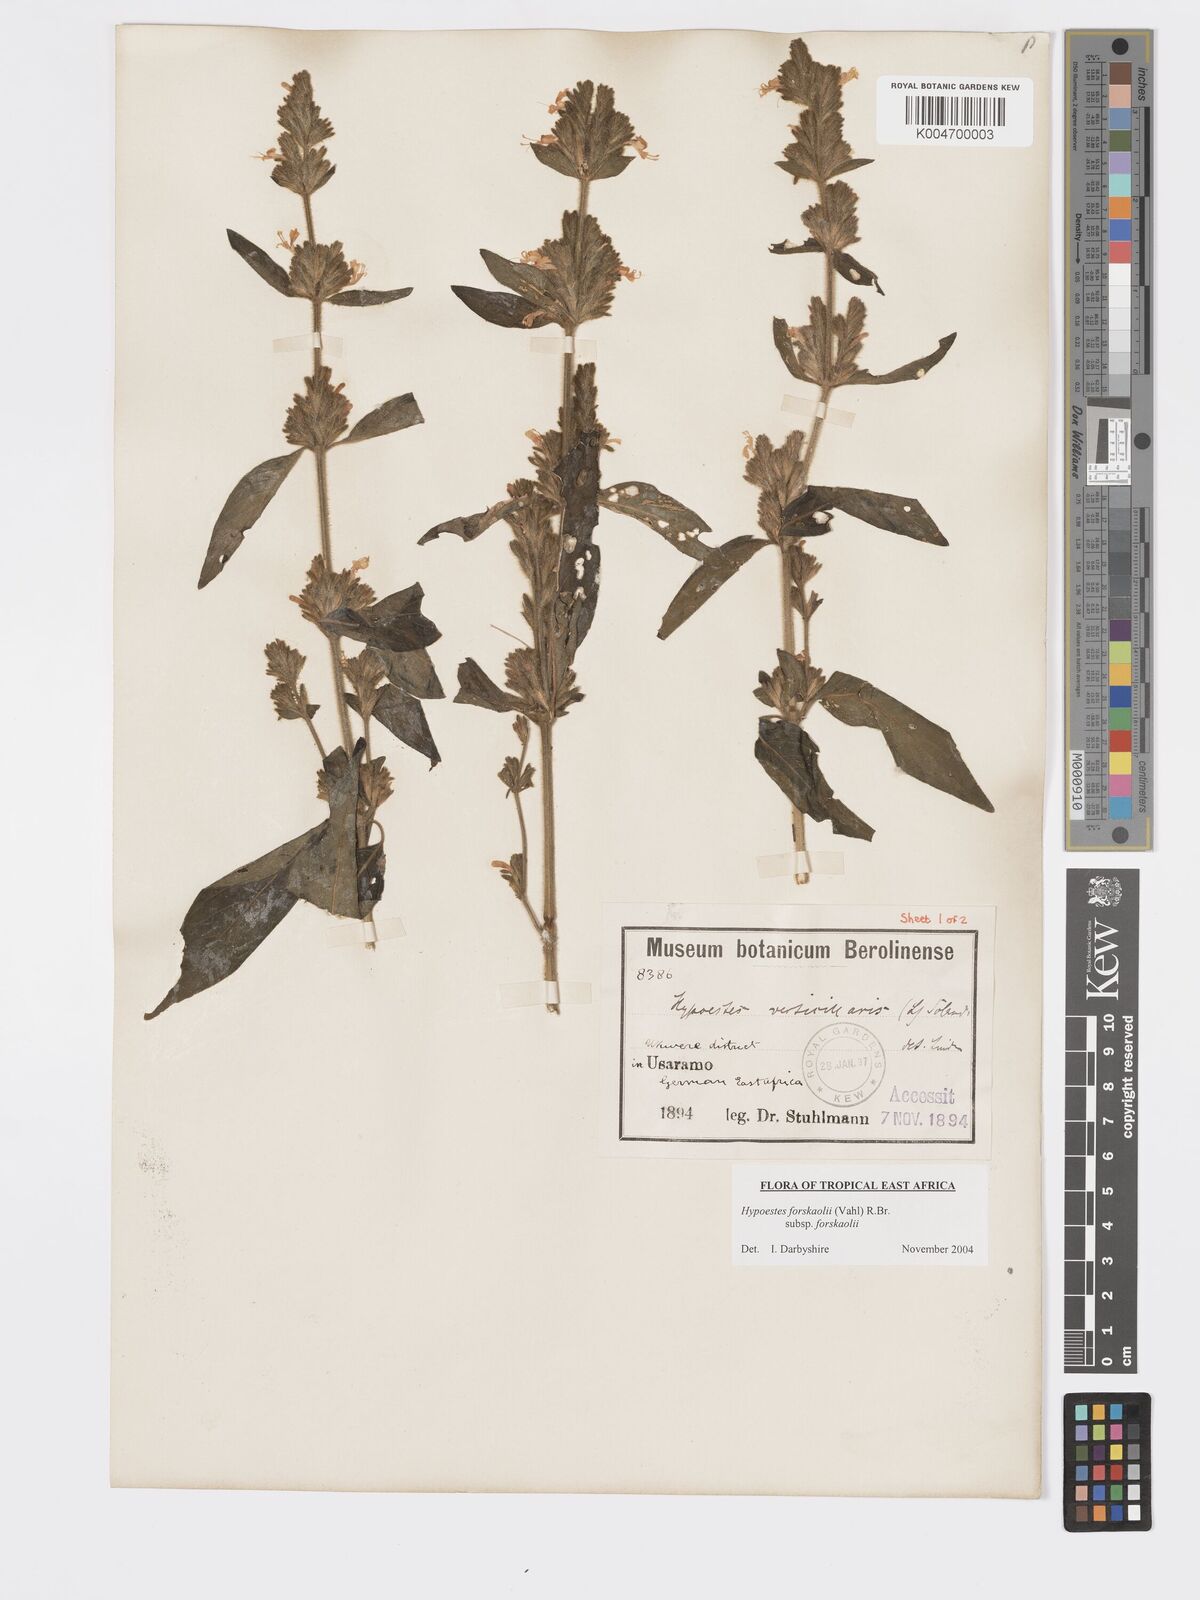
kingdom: Plantae
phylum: Tracheophyta
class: Magnoliopsida
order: Lamiales
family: Acanthaceae
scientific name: Acanthaceae
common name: Acanthaceae
